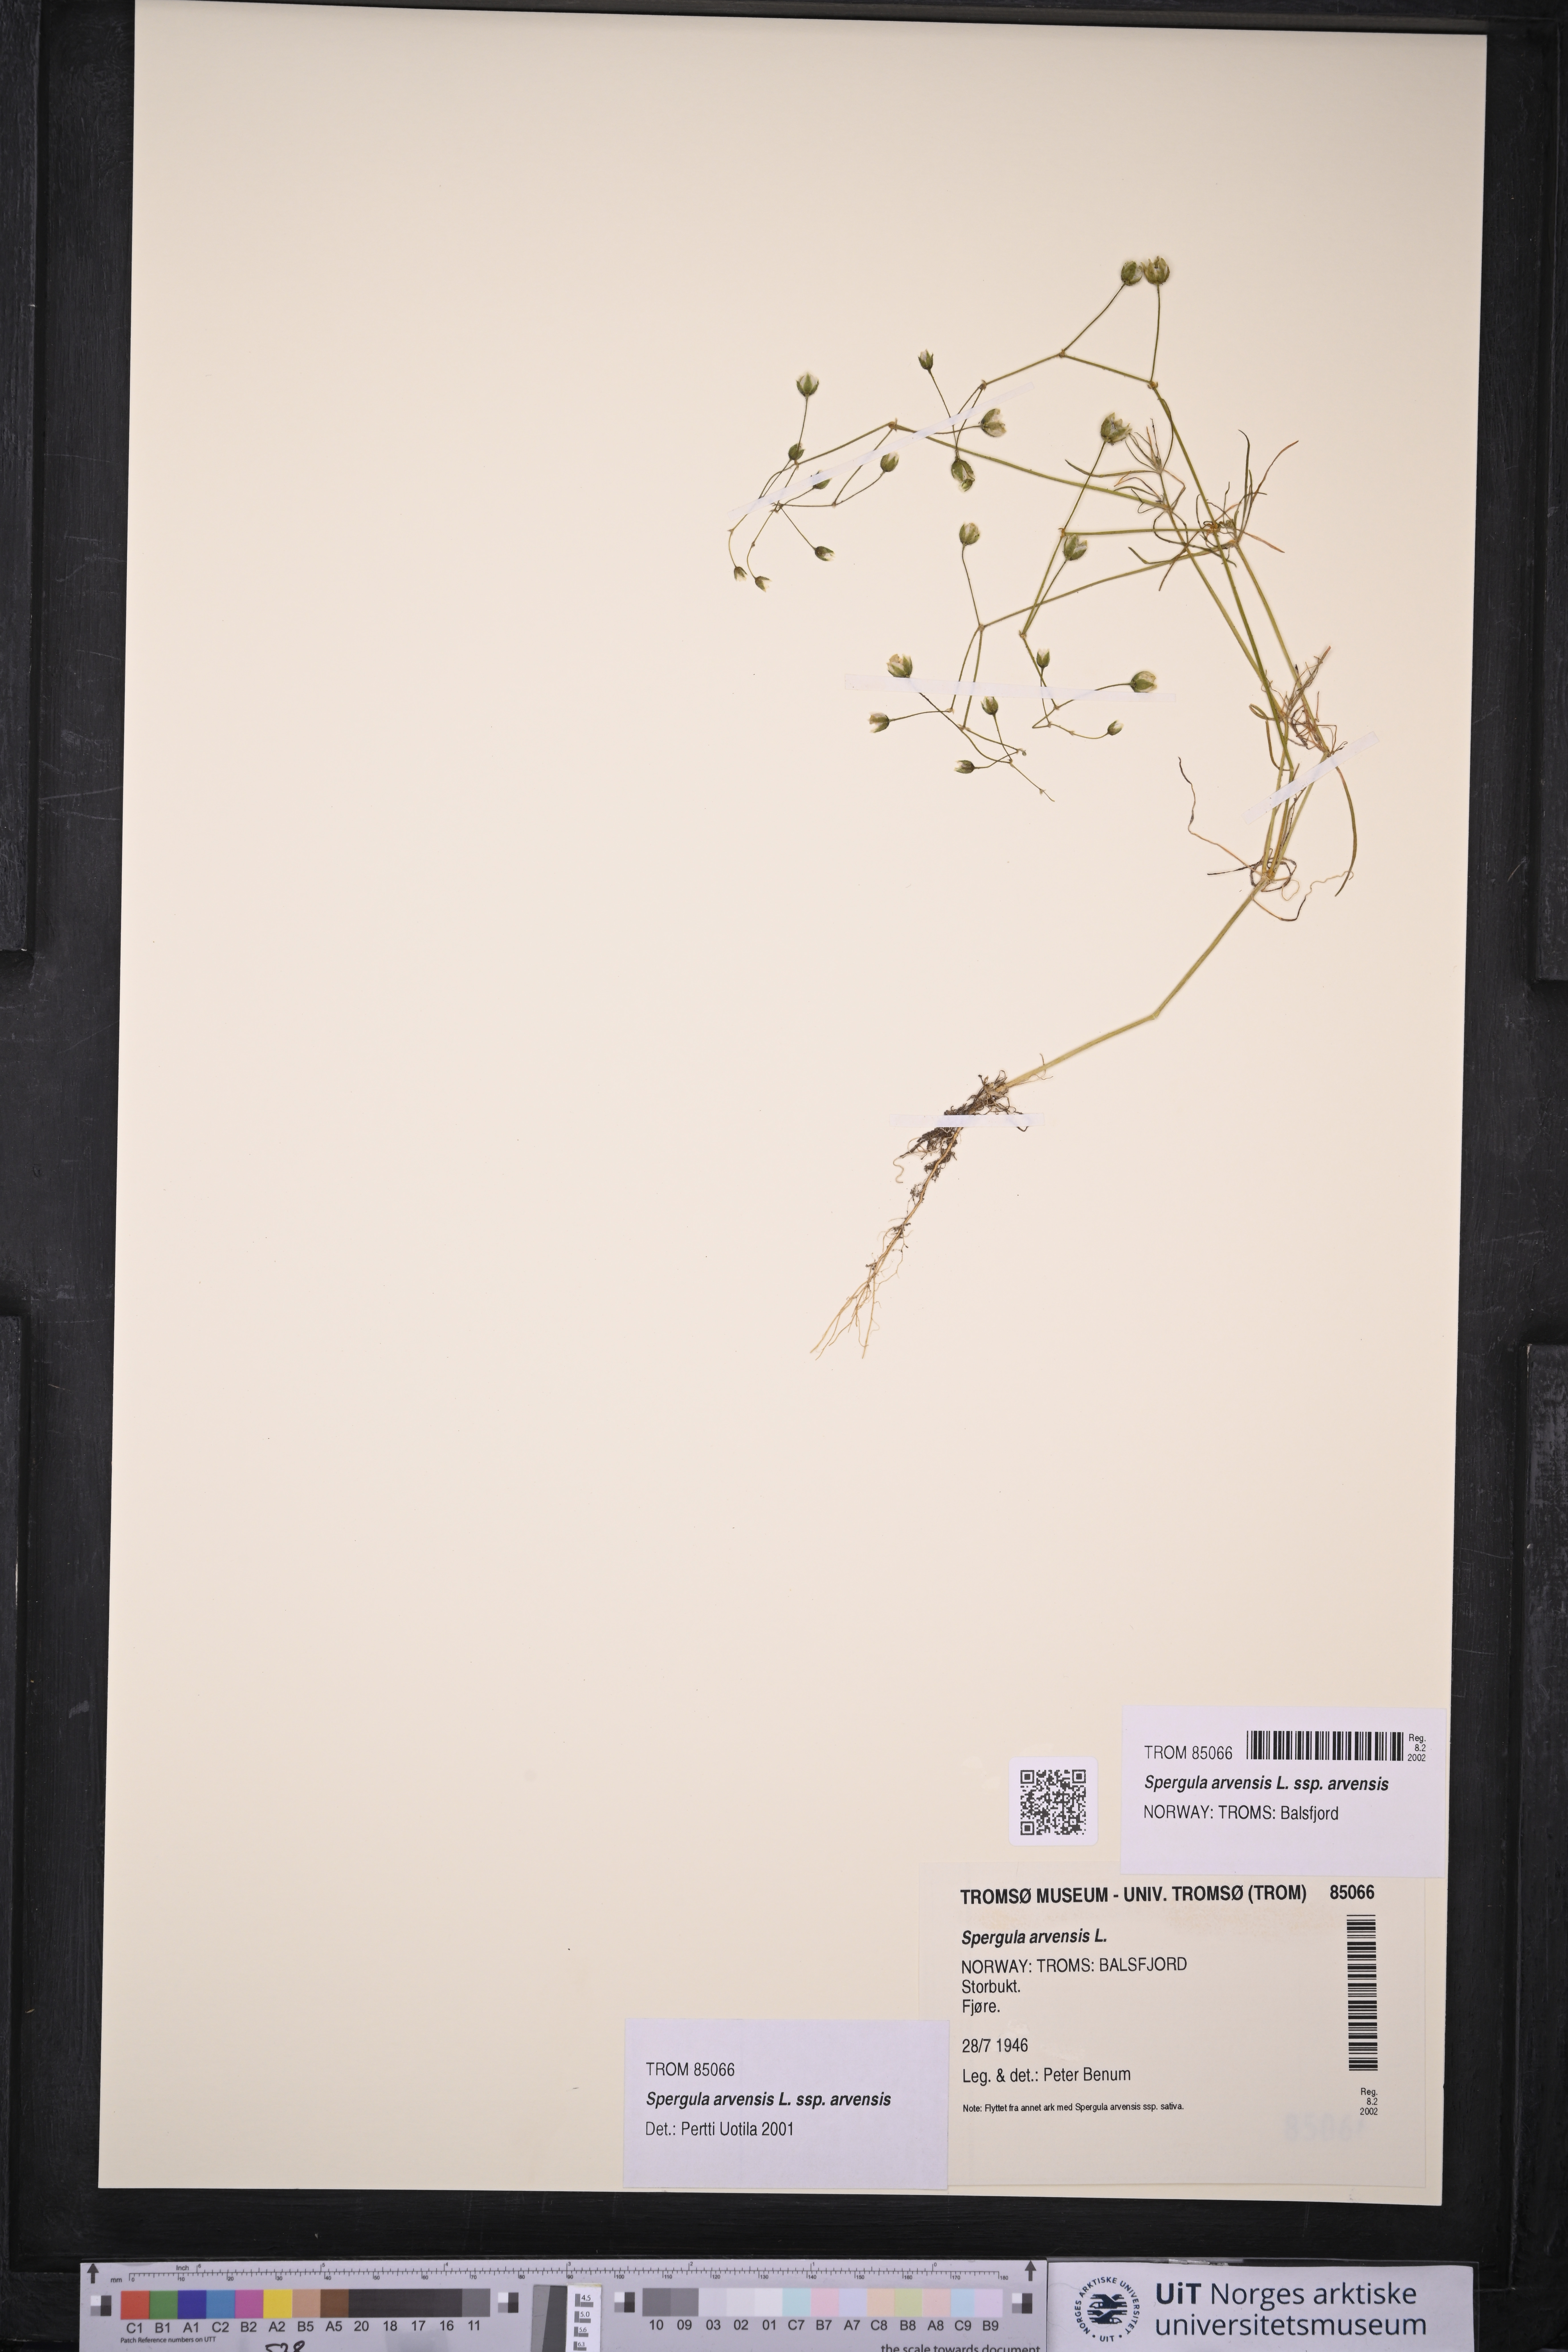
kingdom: Plantae
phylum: Tracheophyta
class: Magnoliopsida
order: Caryophyllales
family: Caryophyllaceae
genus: Spergula
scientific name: Spergula arvensis
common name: Corn spurrey
